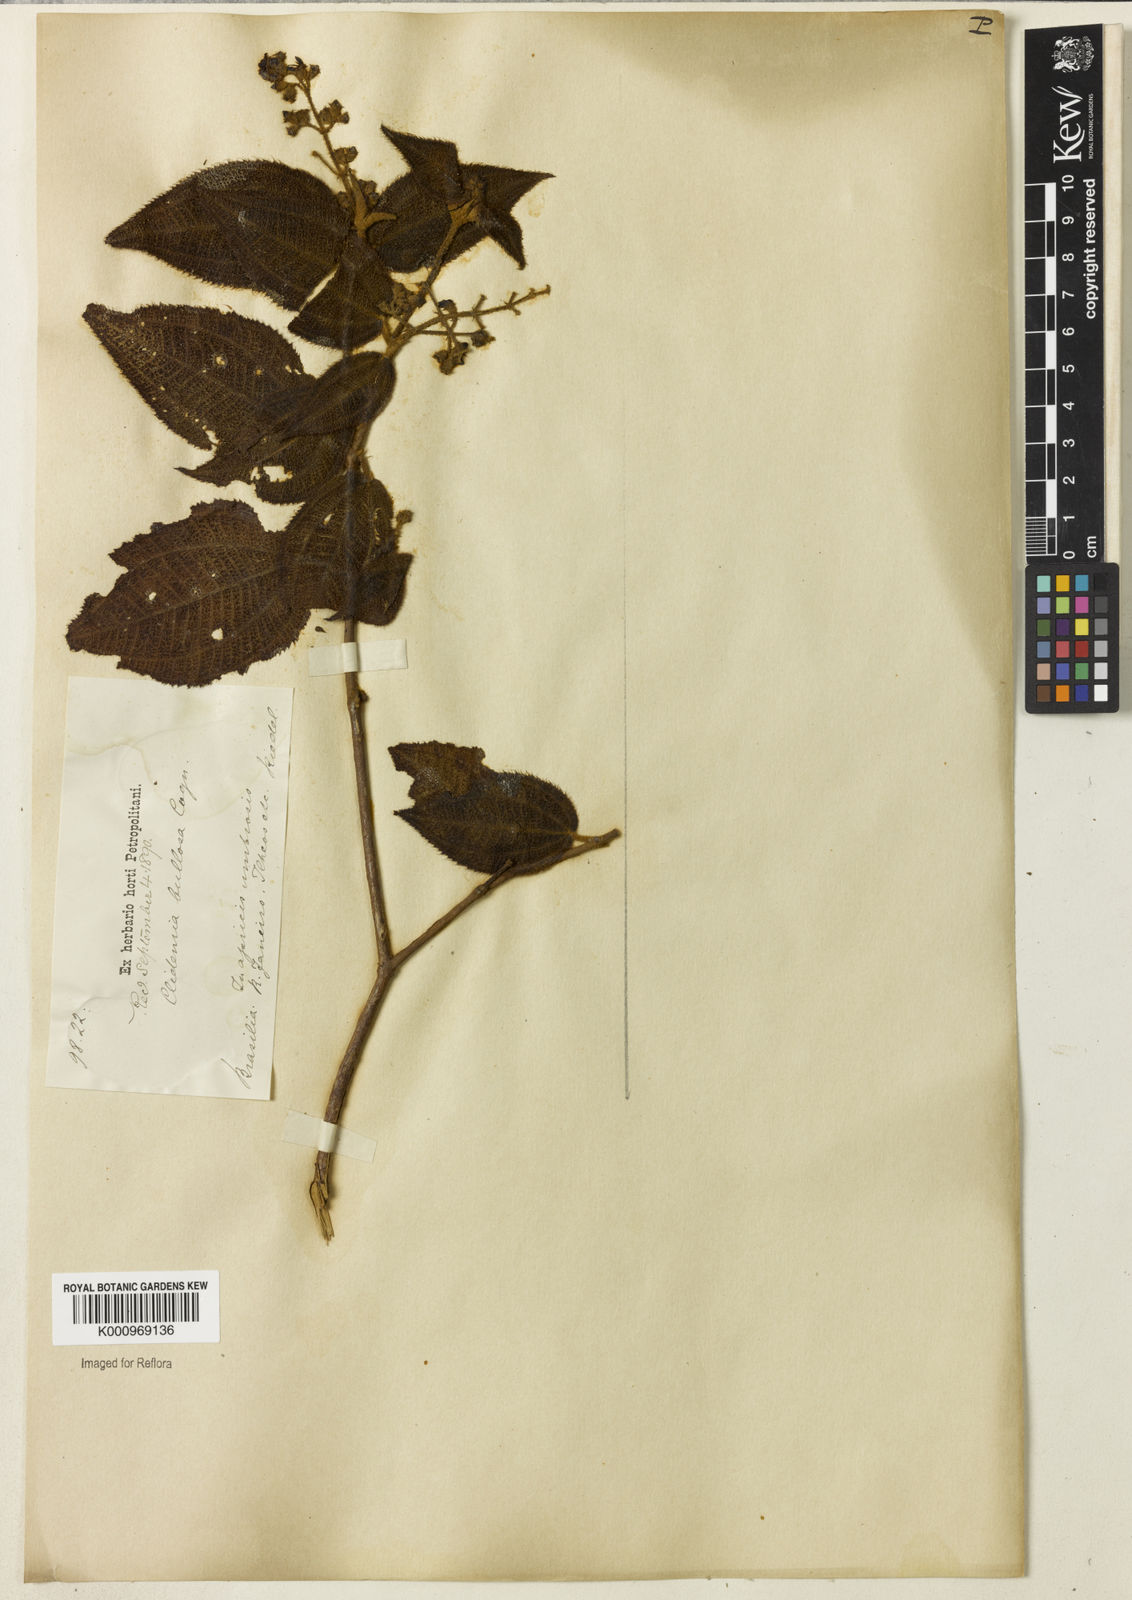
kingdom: Plantae
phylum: Tracheophyta
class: Magnoliopsida
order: Myrtales
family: Melastomataceae
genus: Miconia
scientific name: Miconia biserrata
